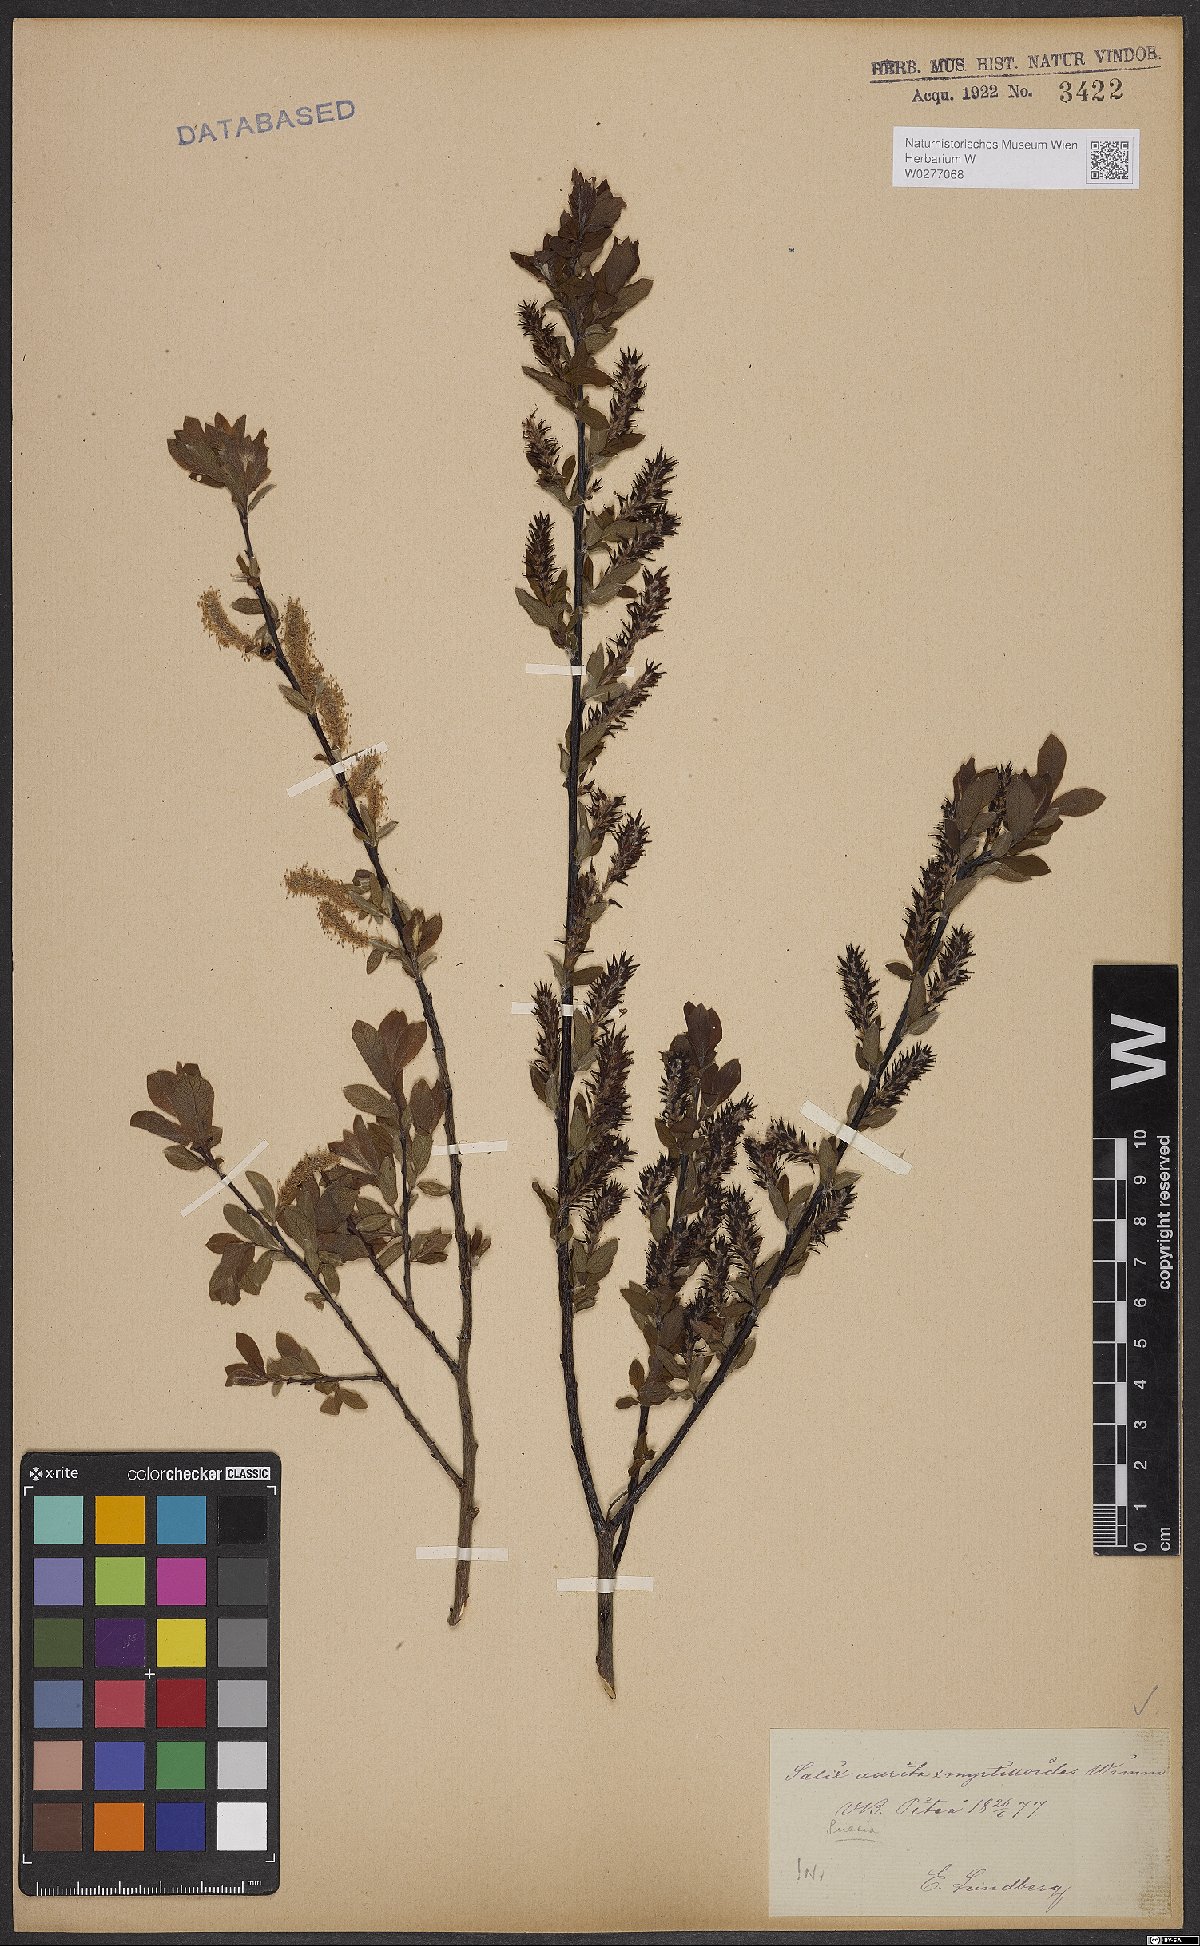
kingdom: Plantae
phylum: Tracheophyta
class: Magnoliopsida
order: Malpighiales
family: Salicaceae
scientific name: Salicaceae
